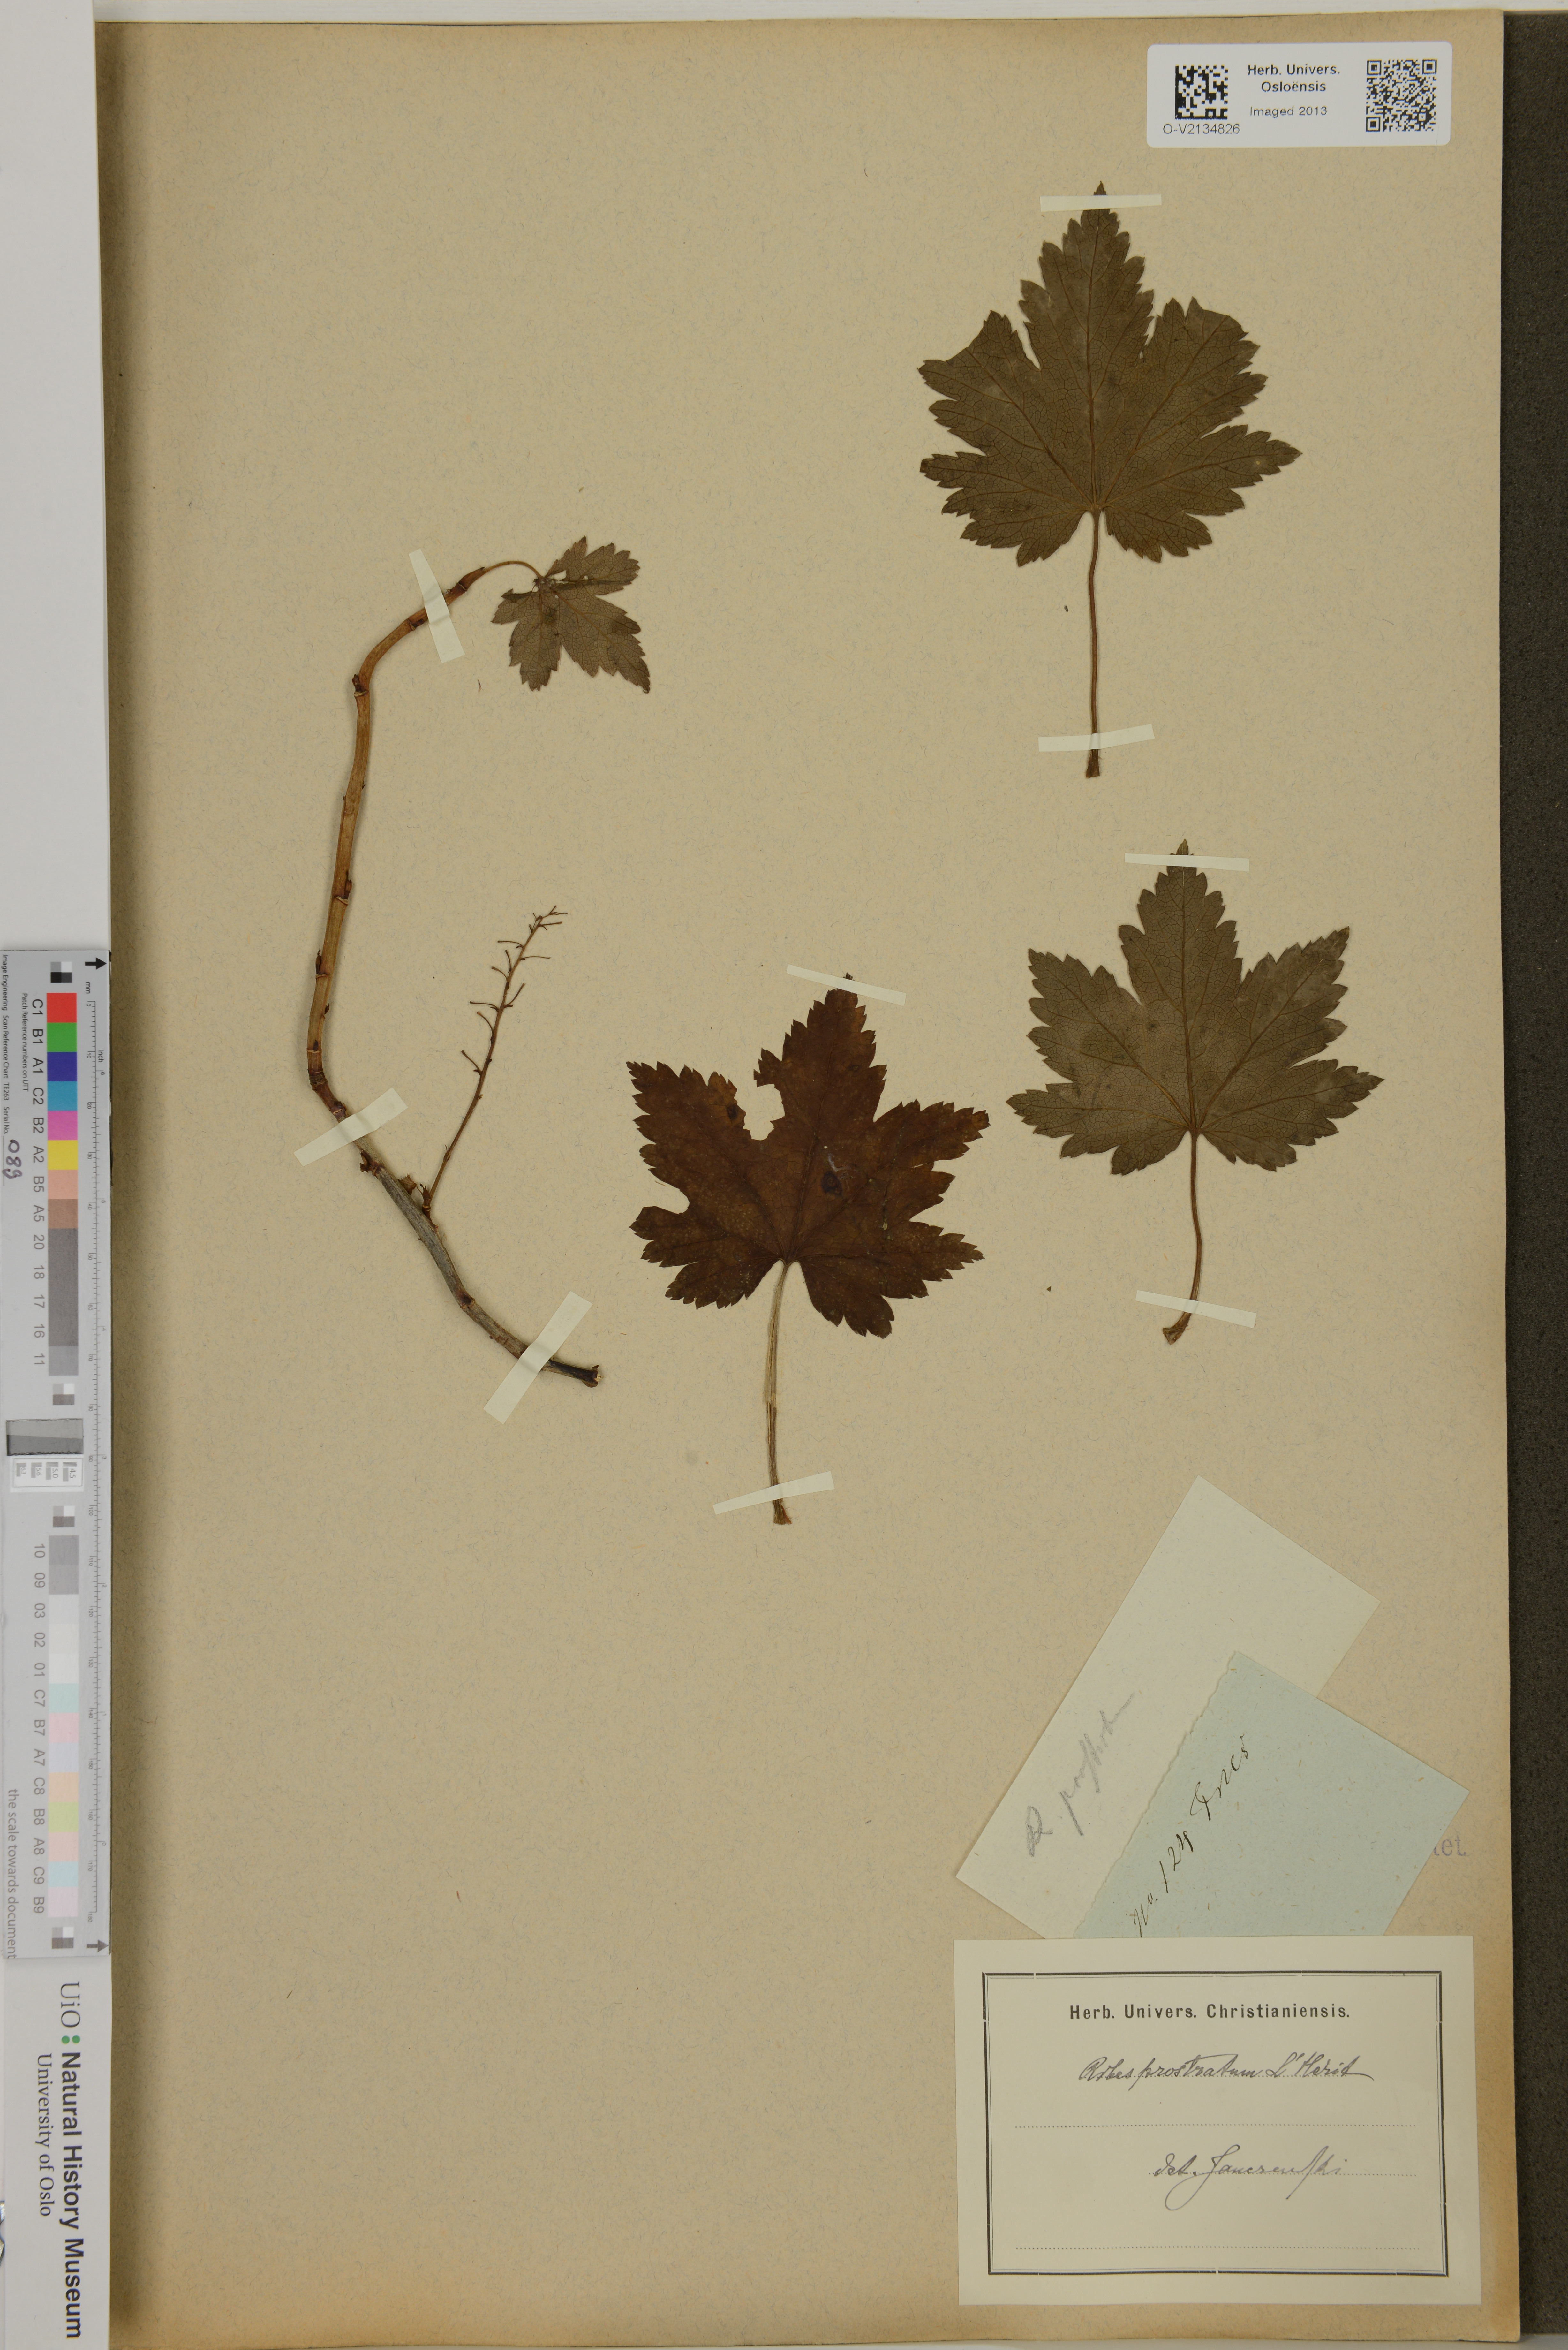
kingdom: Plantae
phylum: Tracheophyta
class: Magnoliopsida
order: Saxifragales
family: Grossulariaceae
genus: Ribes
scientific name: Ribes glandulosum
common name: Skunk currant
